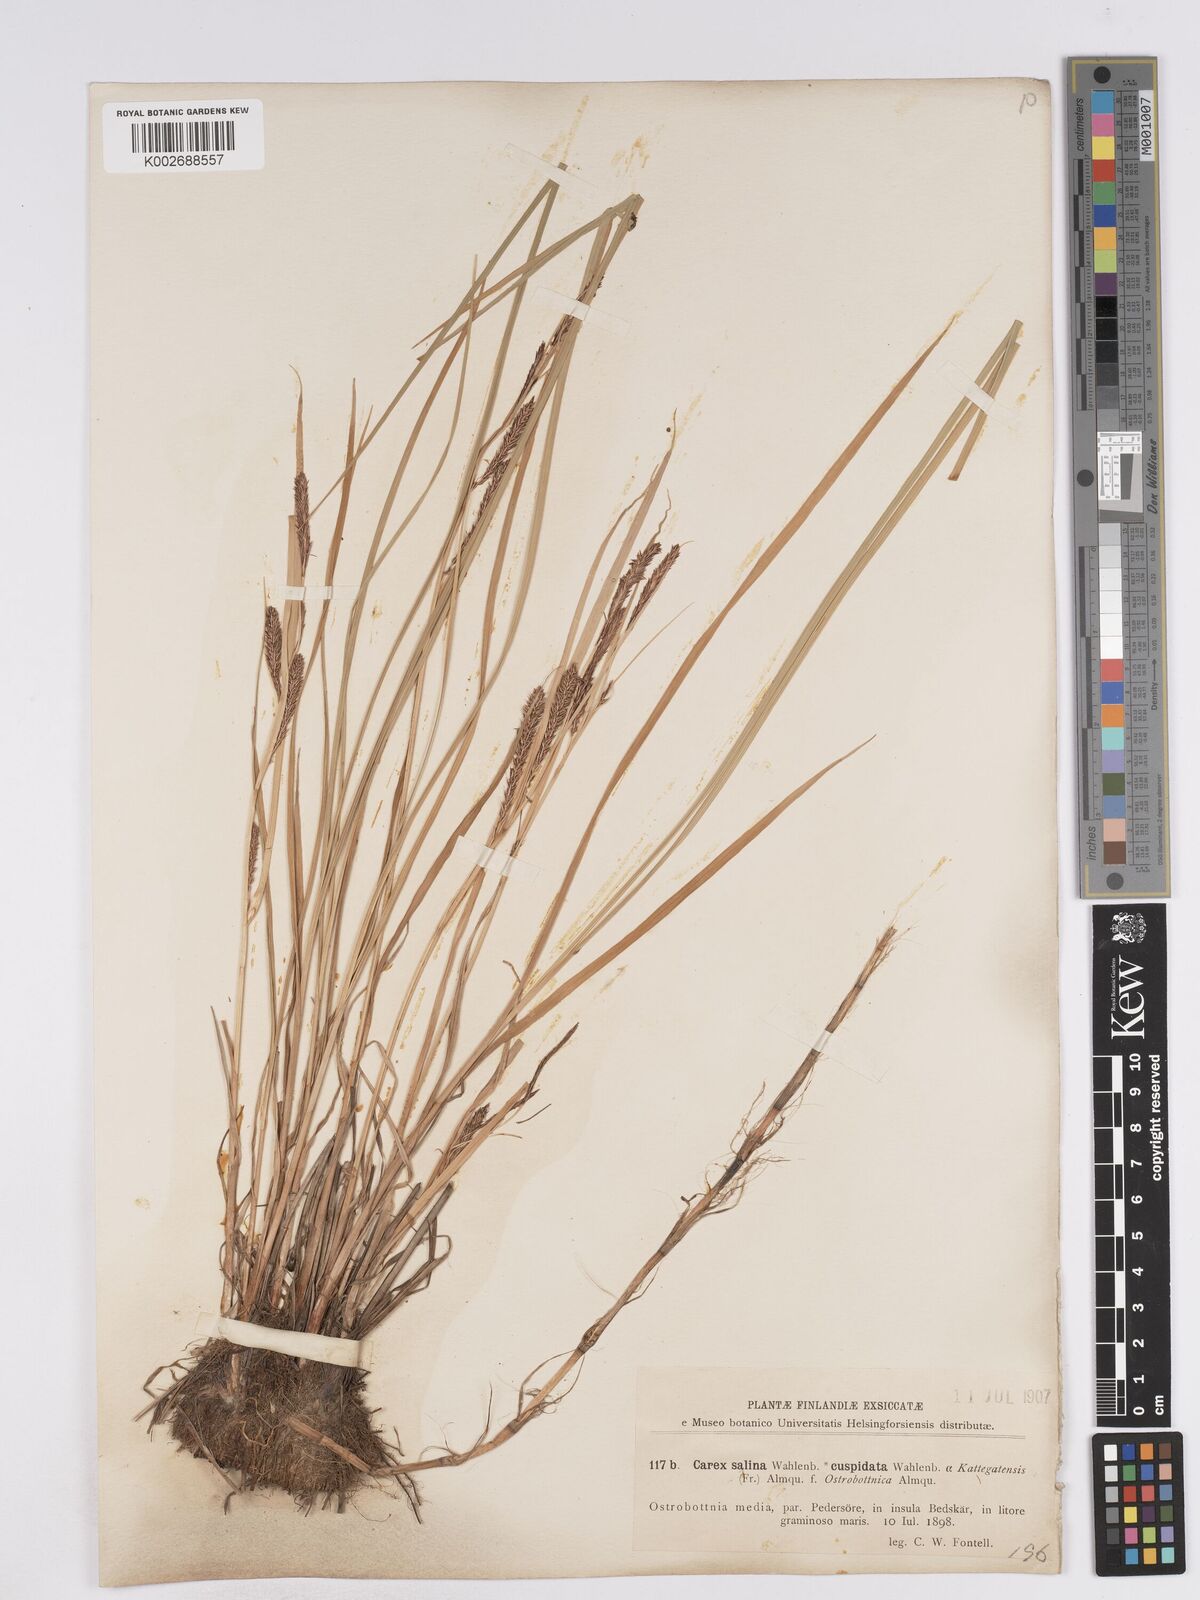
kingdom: Plantae
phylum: Tracheophyta
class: Liliopsida
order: Poales
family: Cyperaceae
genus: Carex
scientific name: Carex recta
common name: Estuarine sedge
